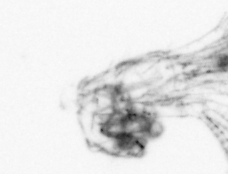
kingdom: Animalia
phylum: Arthropoda
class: Maxillopoda
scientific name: Maxillopoda
